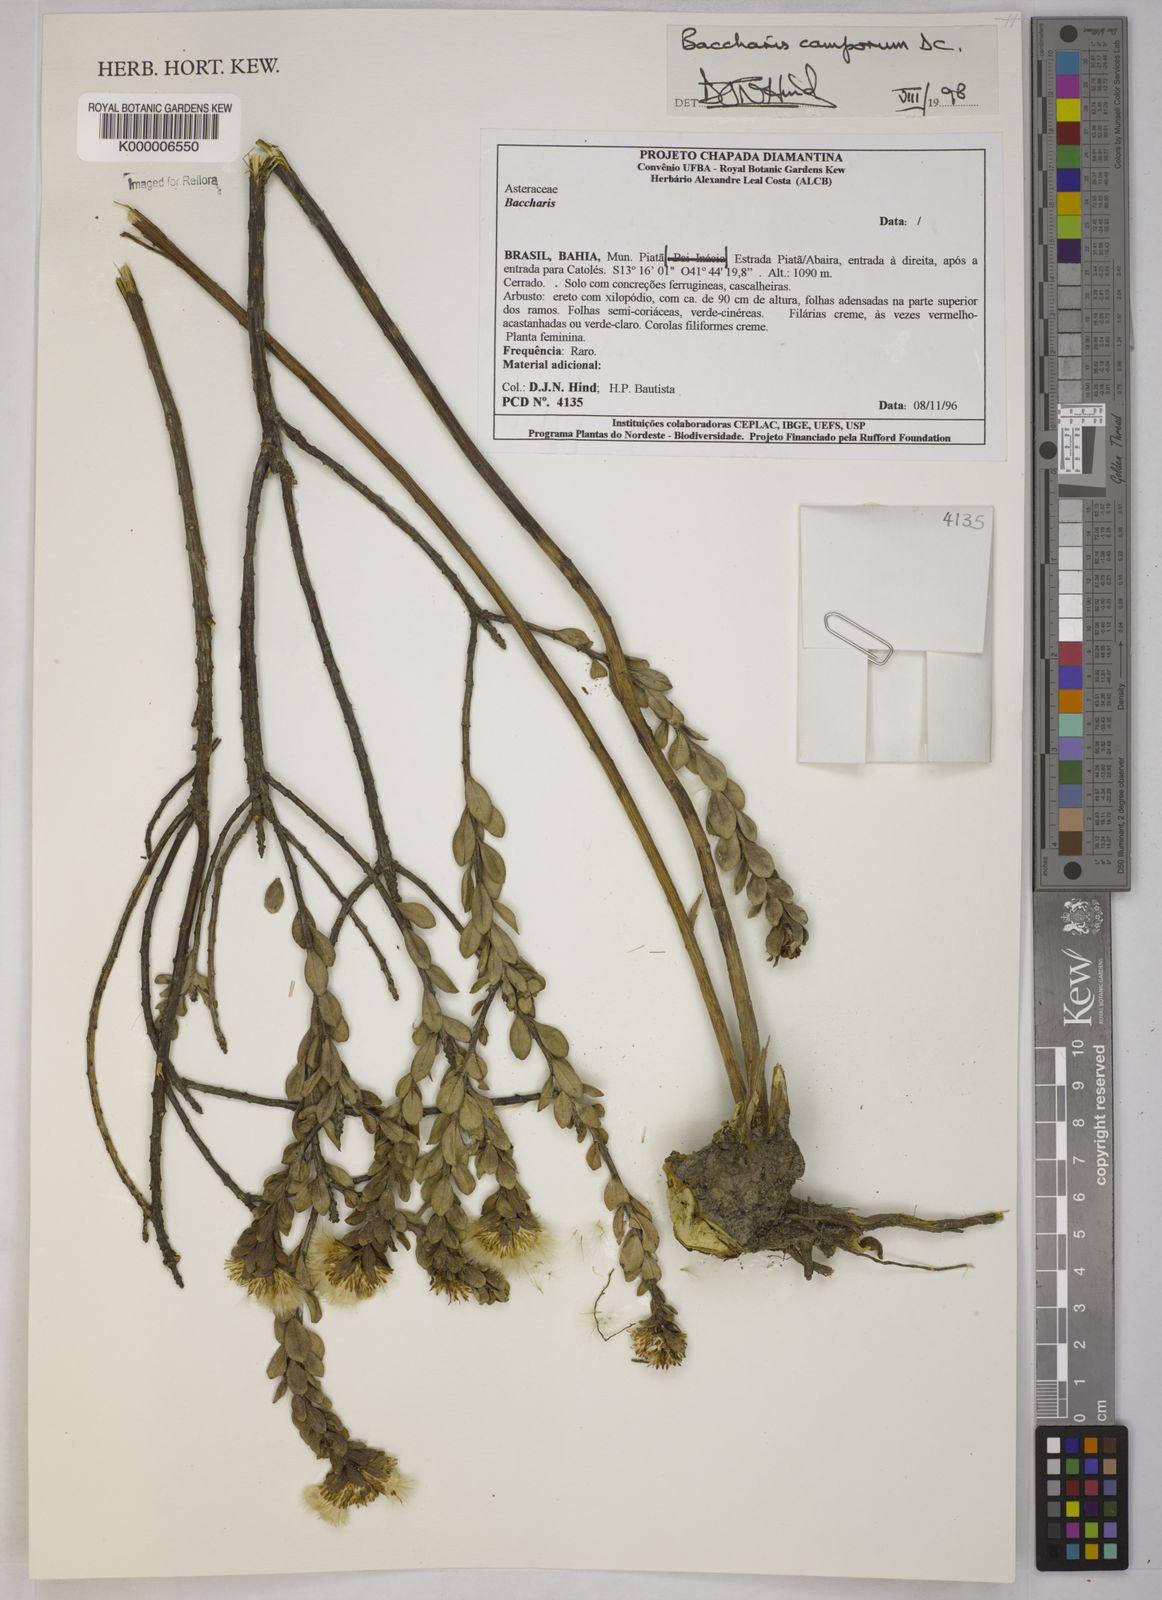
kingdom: Plantae
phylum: Tracheophyta
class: Magnoliopsida
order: Asterales
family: Asteraceae
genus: Baccharis
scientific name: Baccharis camporum
